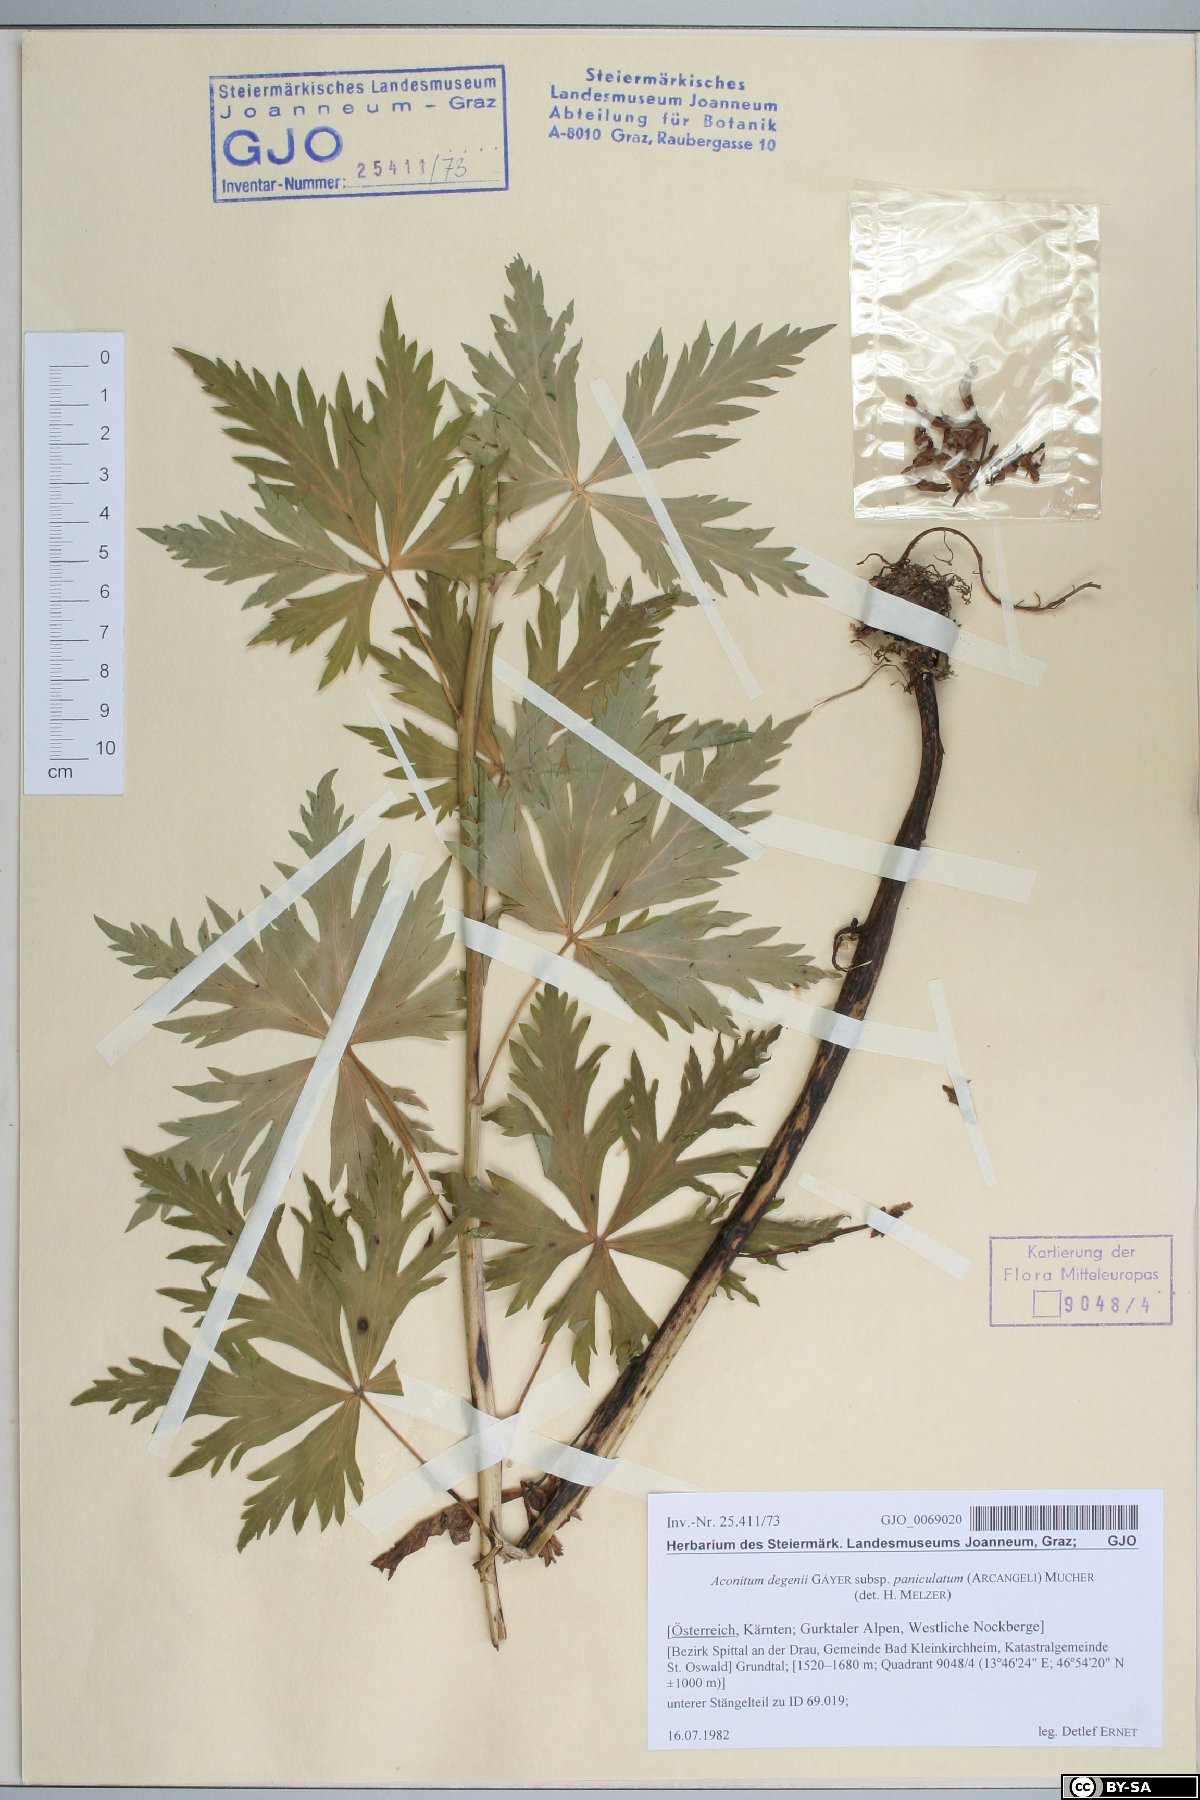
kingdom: Plantae
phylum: Tracheophyta
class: Magnoliopsida
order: Ranunculales
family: Ranunculaceae
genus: Aconitum
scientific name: Aconitum degenii
